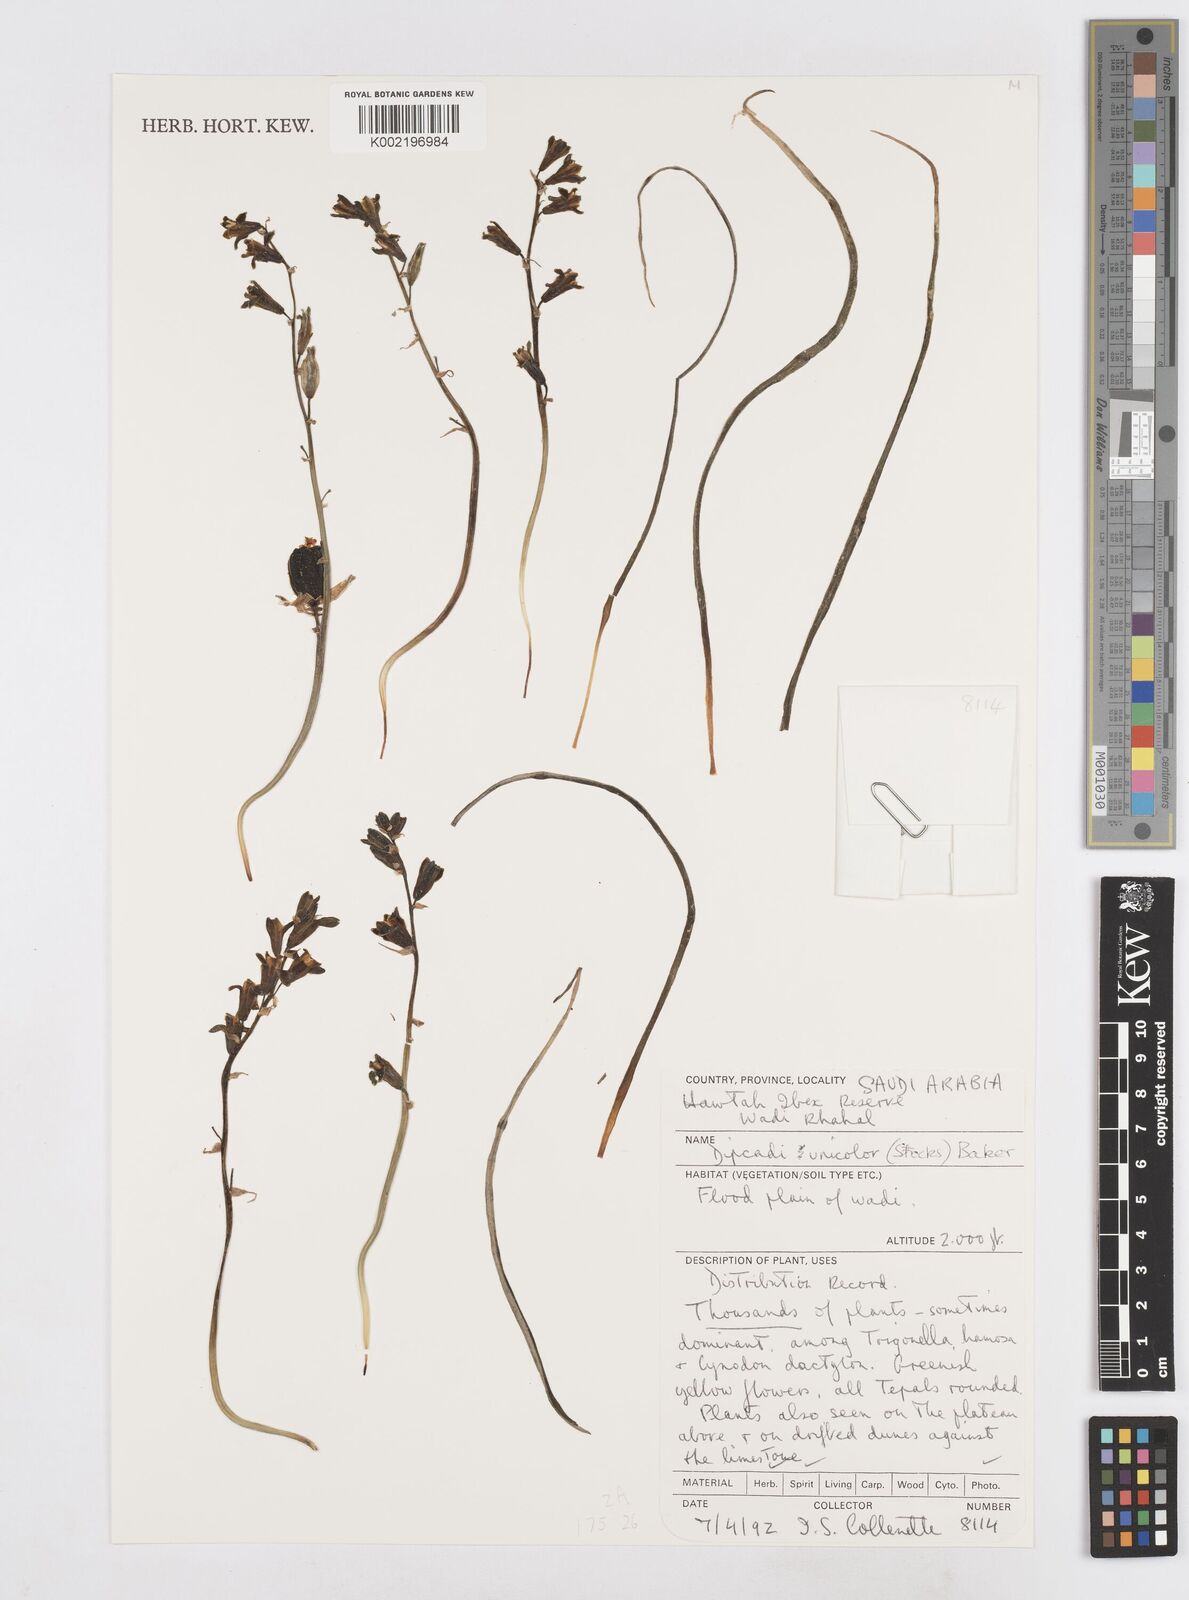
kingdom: Plantae
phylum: Tracheophyta
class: Liliopsida
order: Asparagales
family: Asparagaceae
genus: Dipcadi
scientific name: Dipcadi erythraeum
